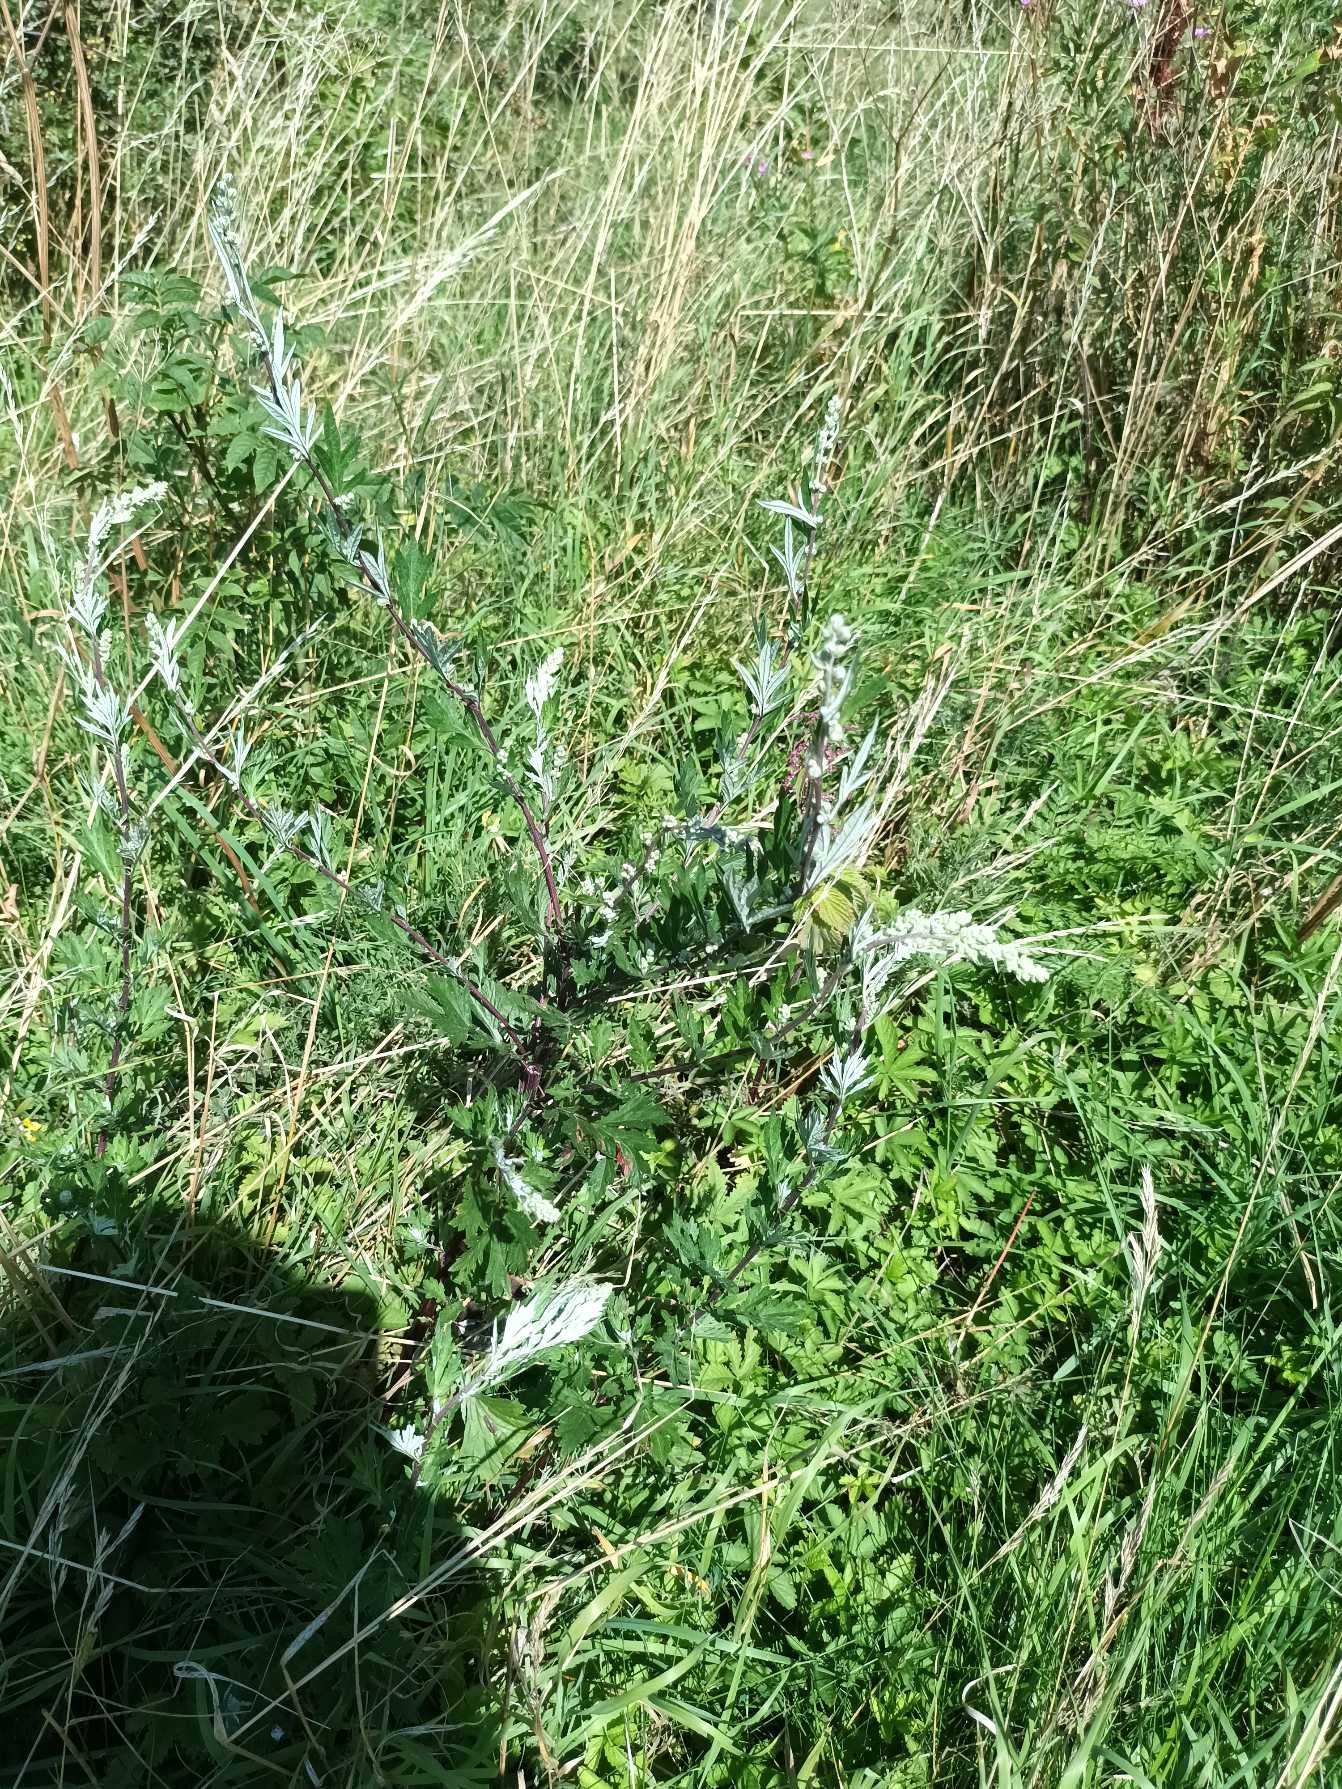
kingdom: Plantae
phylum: Tracheophyta
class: Magnoliopsida
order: Asterales
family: Asteraceae
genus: Artemisia
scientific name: Artemisia vulgaris
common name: Grå-bynke
